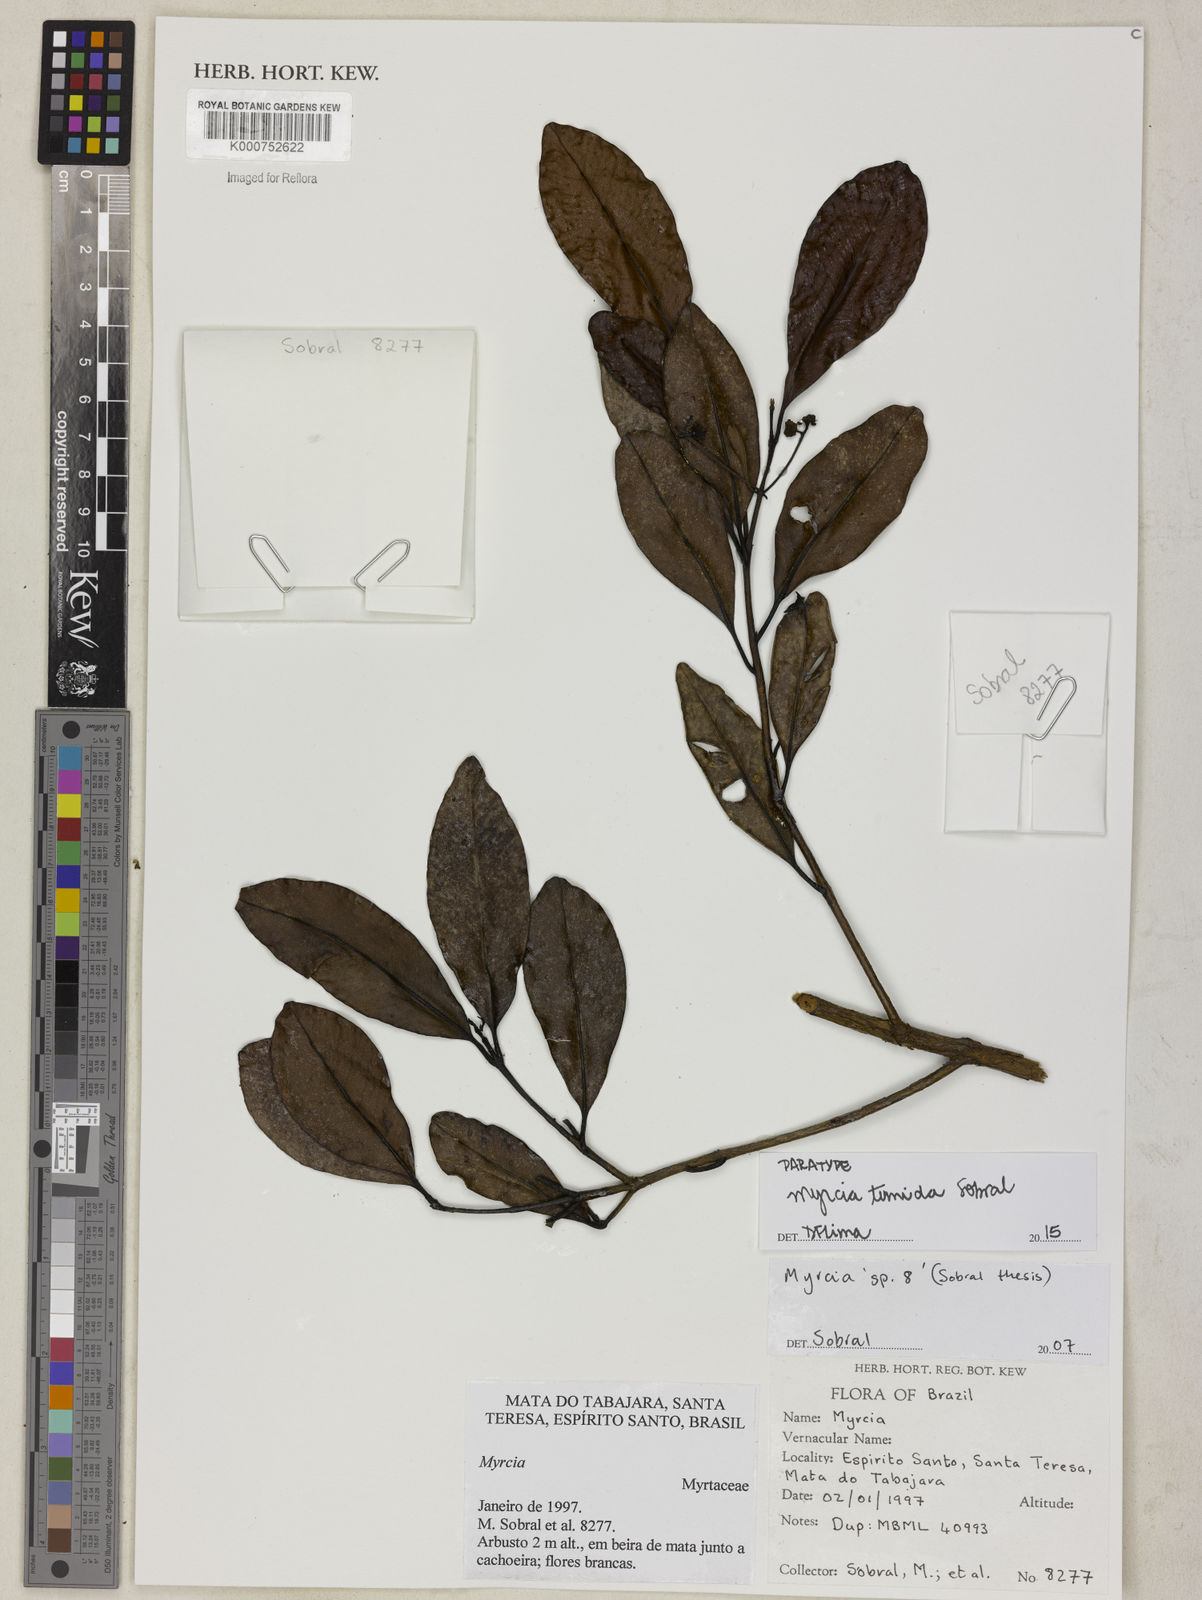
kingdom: Plantae
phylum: Tracheophyta
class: Magnoliopsida
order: Myrtales
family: Myrtaceae
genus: Myrcia
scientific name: Myrcia tumida
